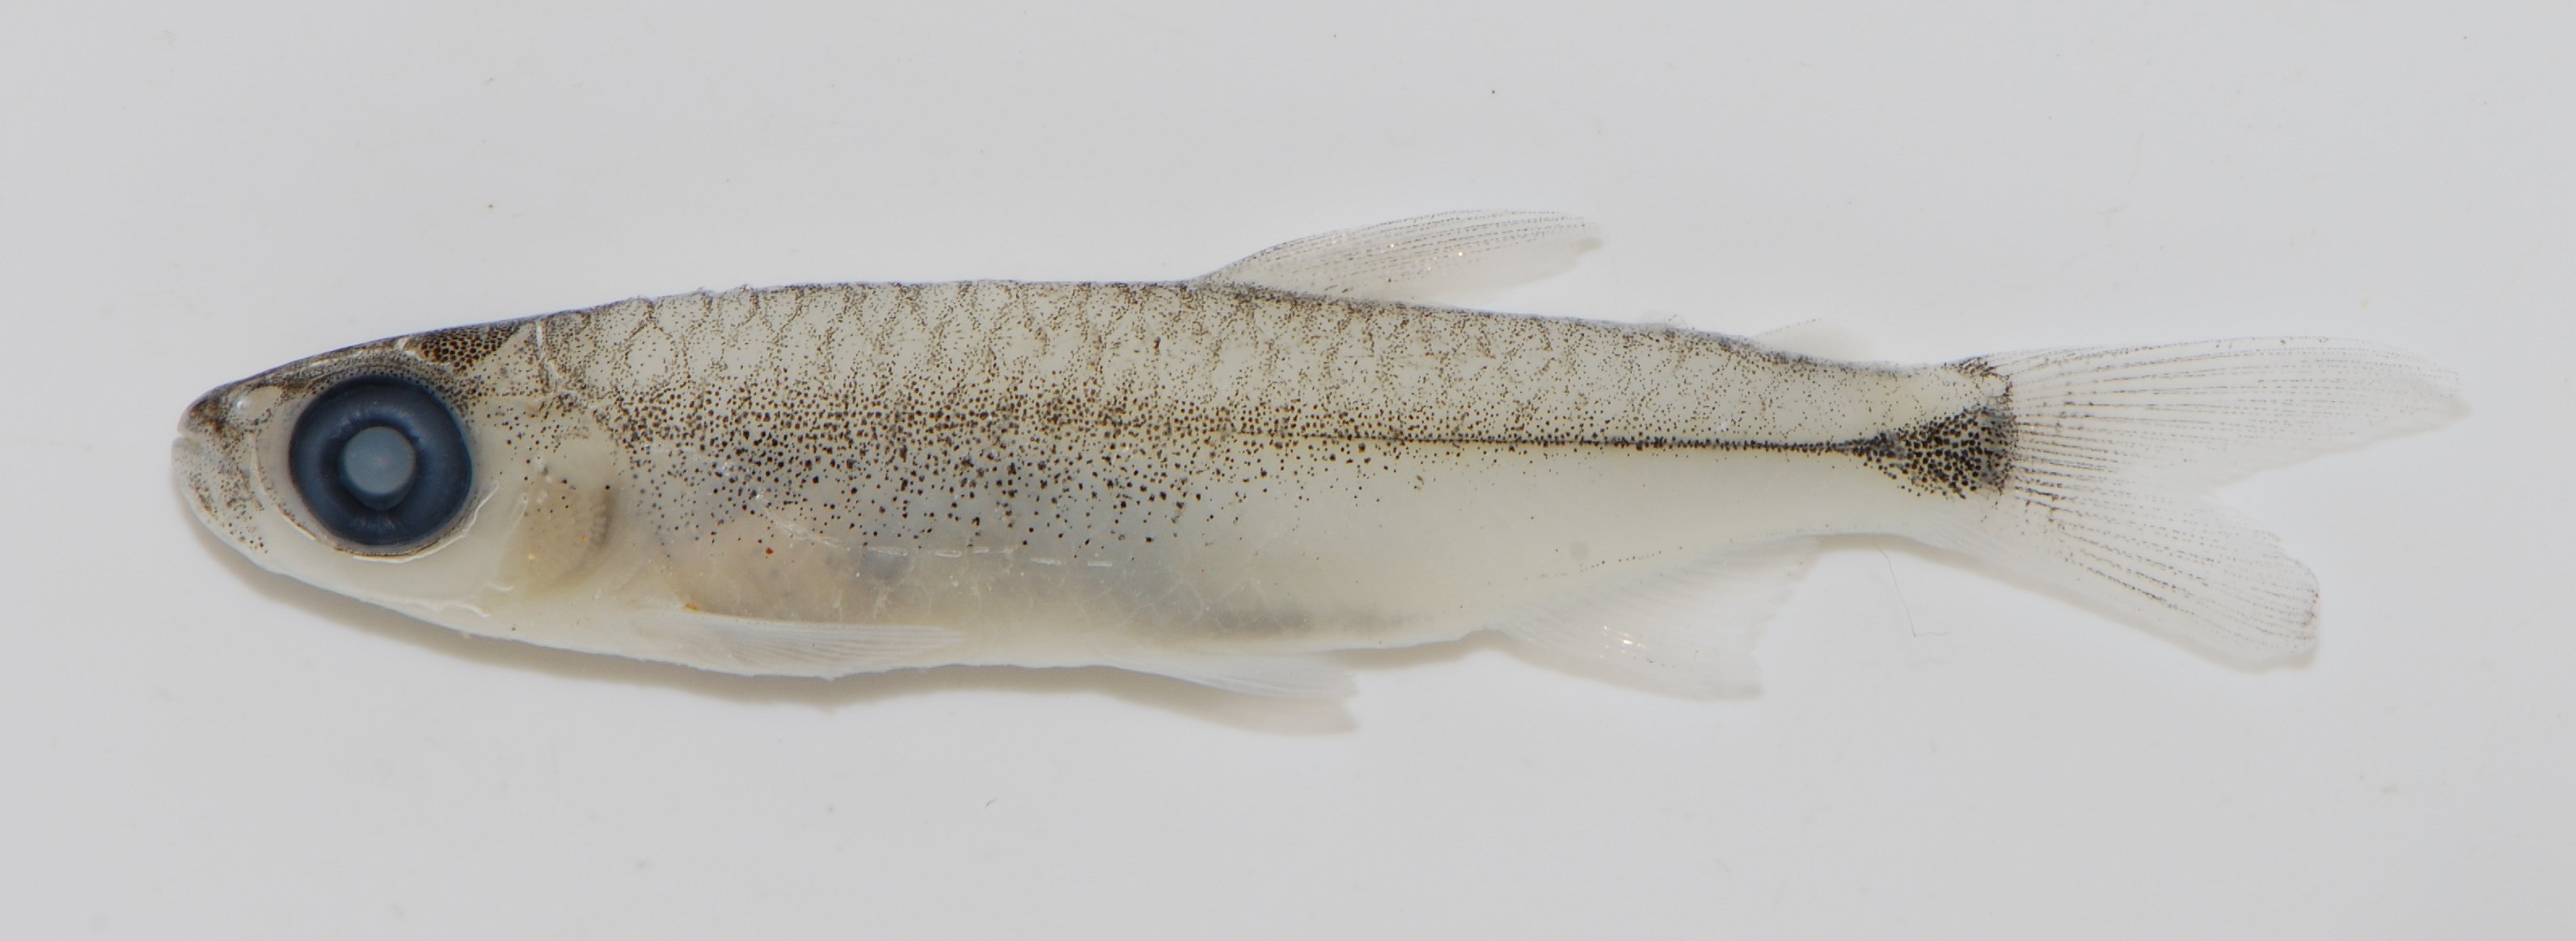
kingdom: Animalia
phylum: Chordata
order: Characiformes
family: Alestidae
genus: Brycinus
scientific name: Brycinus
